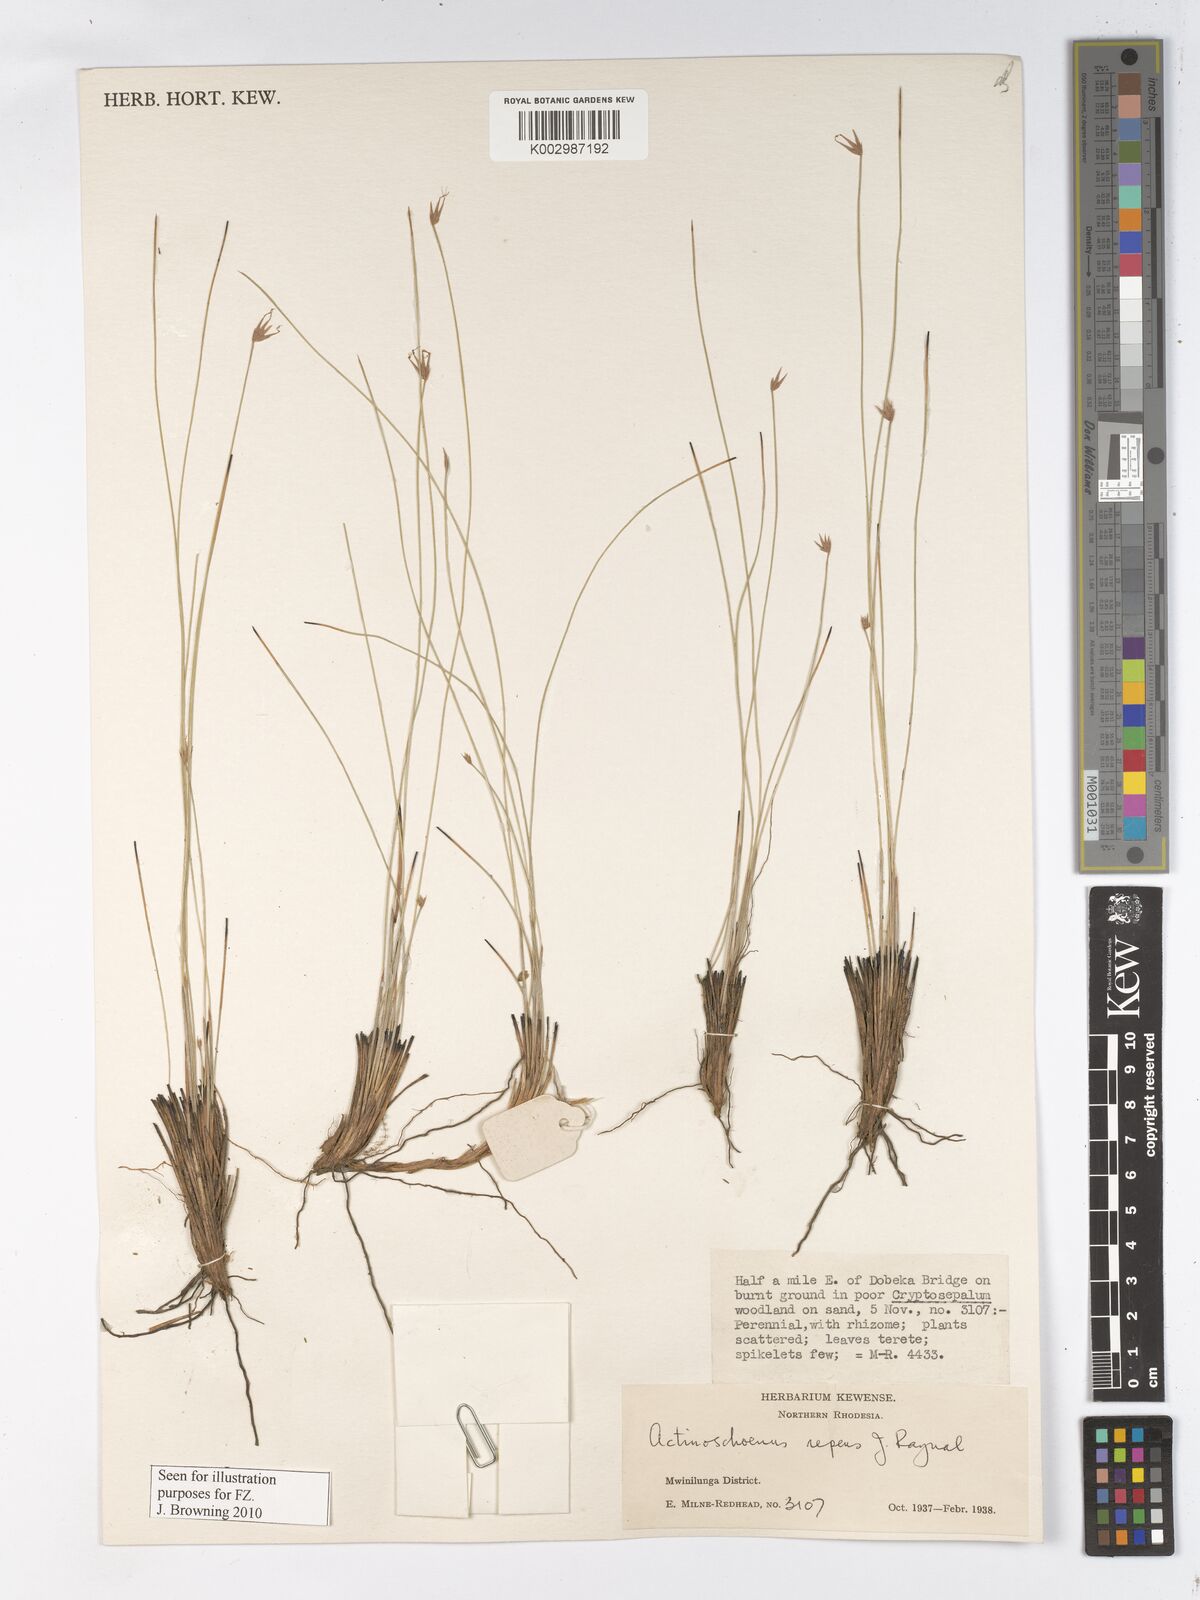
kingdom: Plantae
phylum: Tracheophyta
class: Liliopsida
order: Poales
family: Cyperaceae
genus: Actinoschoenus
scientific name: Actinoschoenus repens
